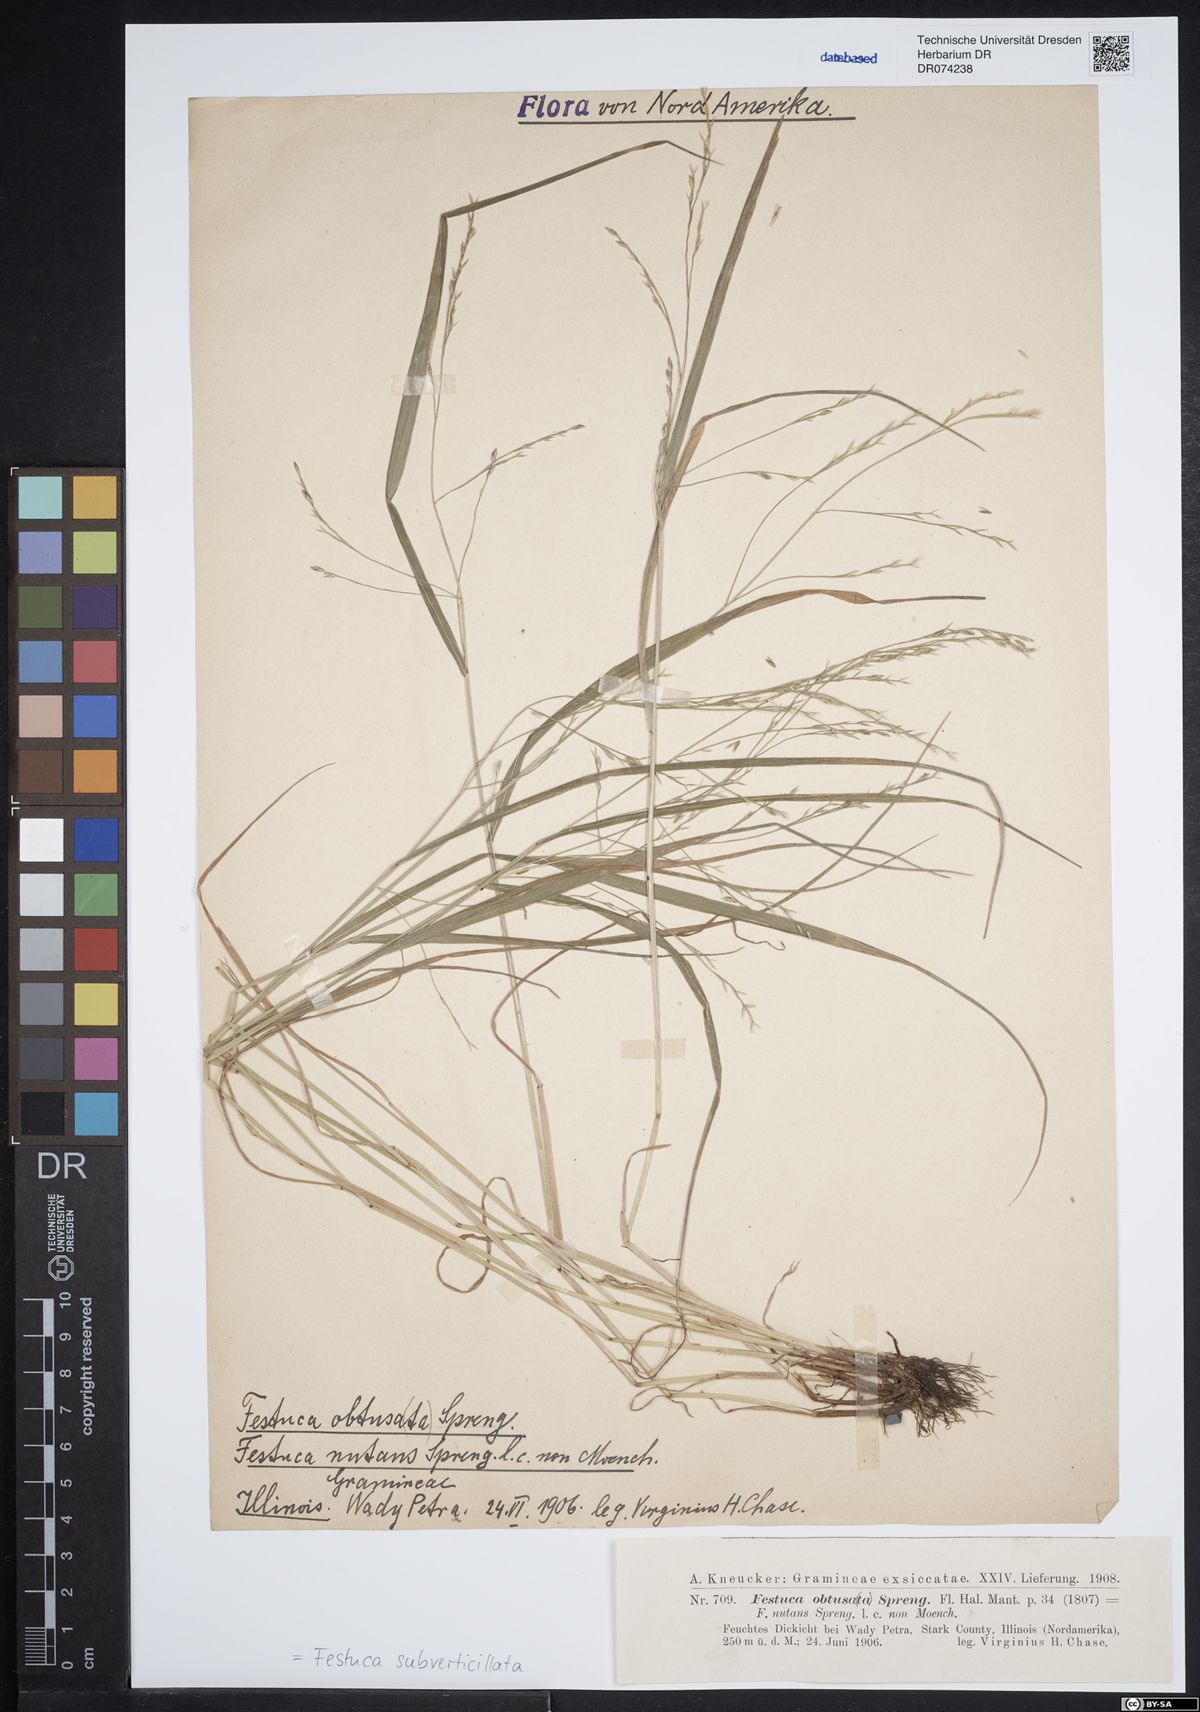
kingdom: Plantae
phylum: Tracheophyta
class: Liliopsida
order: Poales
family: Poaceae
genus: Festuca
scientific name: Festuca subverticillata
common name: Nodding fescue
